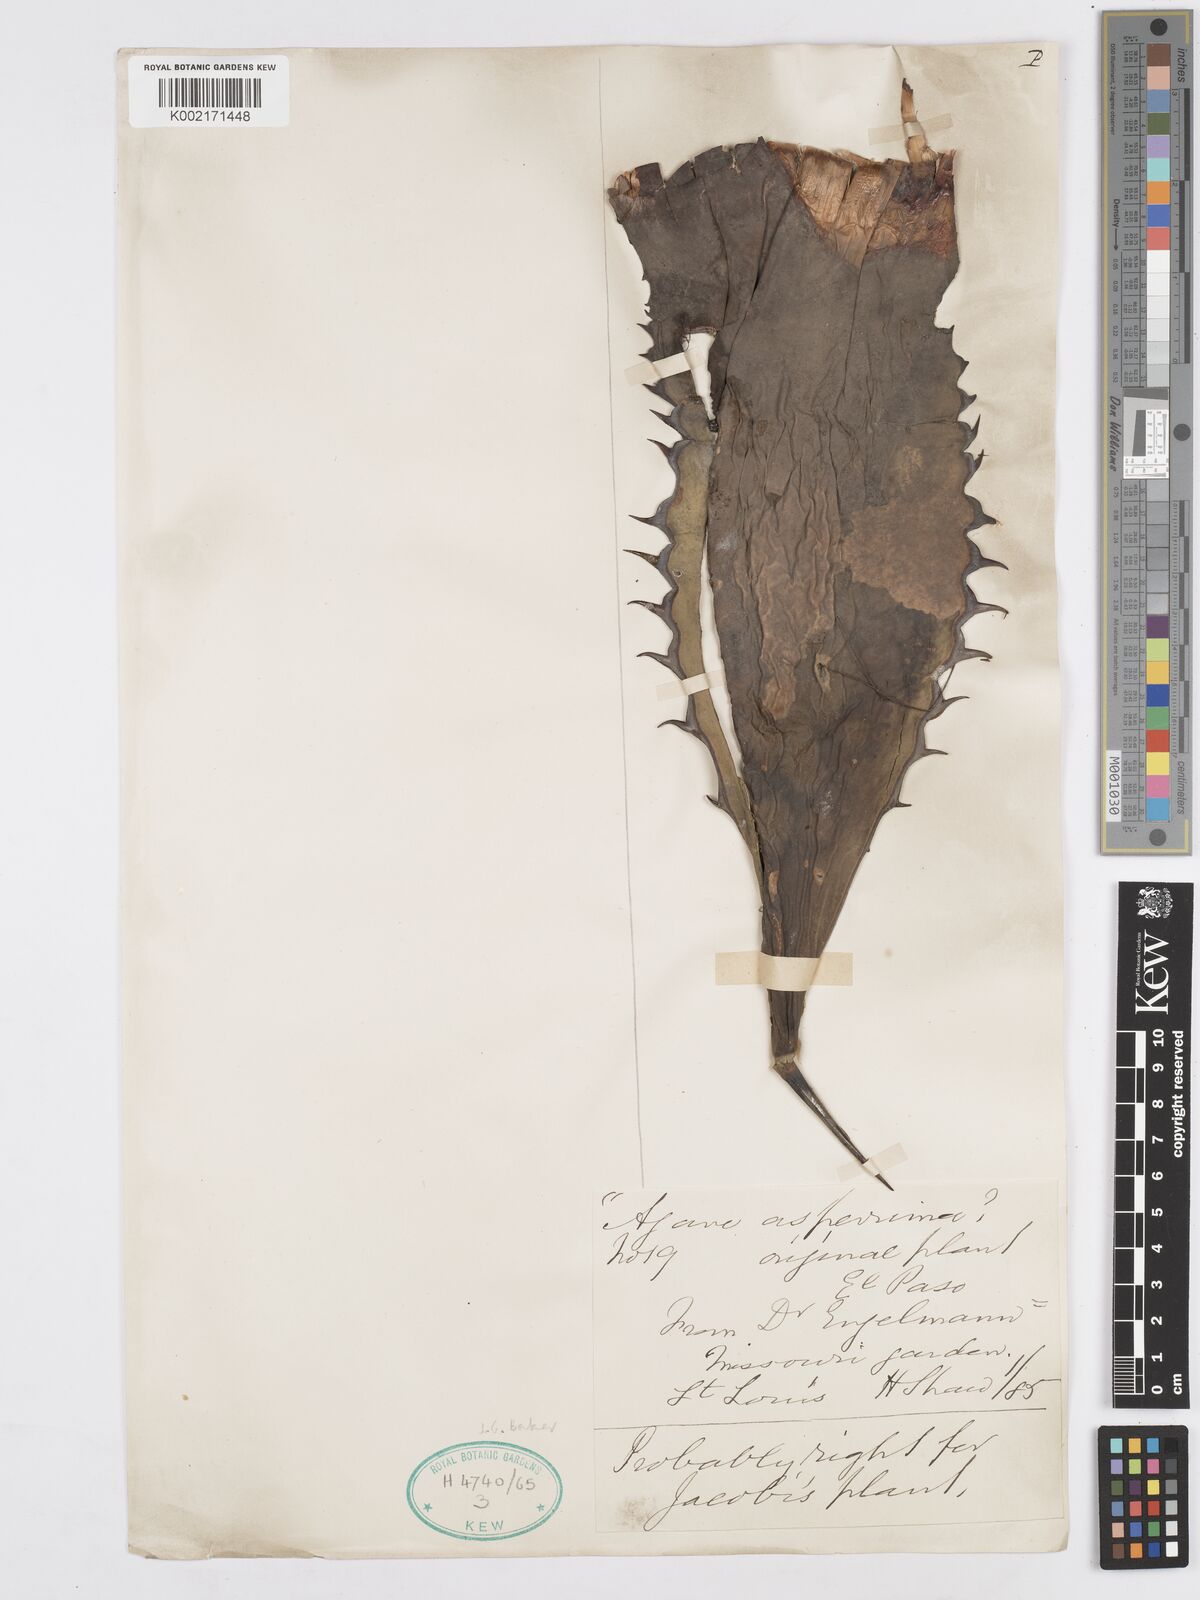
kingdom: Plantae
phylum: Tracheophyta
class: Liliopsida
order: Asparagales
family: Asparagaceae
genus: Agave
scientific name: Agave asperrima
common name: Rough agave
